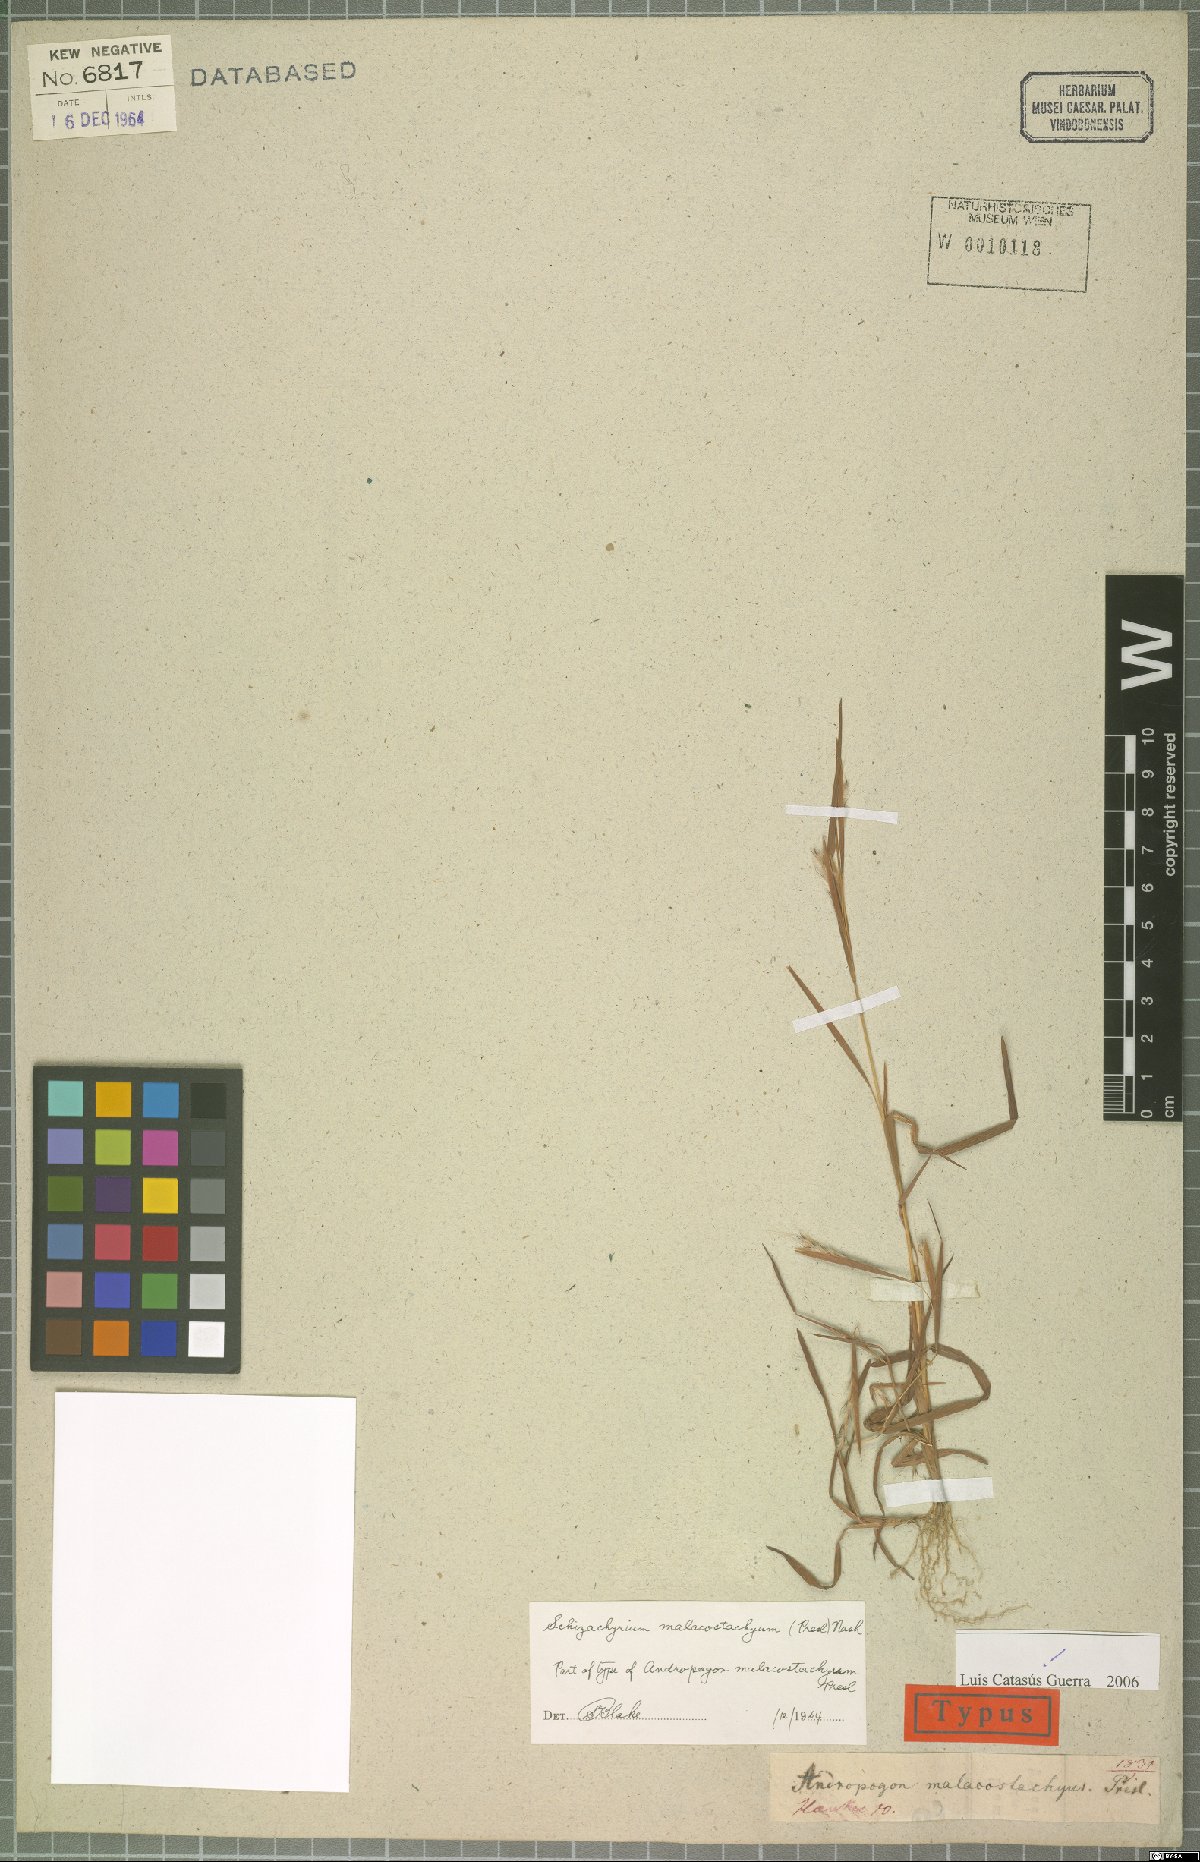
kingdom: Plantae
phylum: Tracheophyta
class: Liliopsida
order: Poales
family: Poaceae
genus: Schizachyrium
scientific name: Schizachyrium malacostachyum
